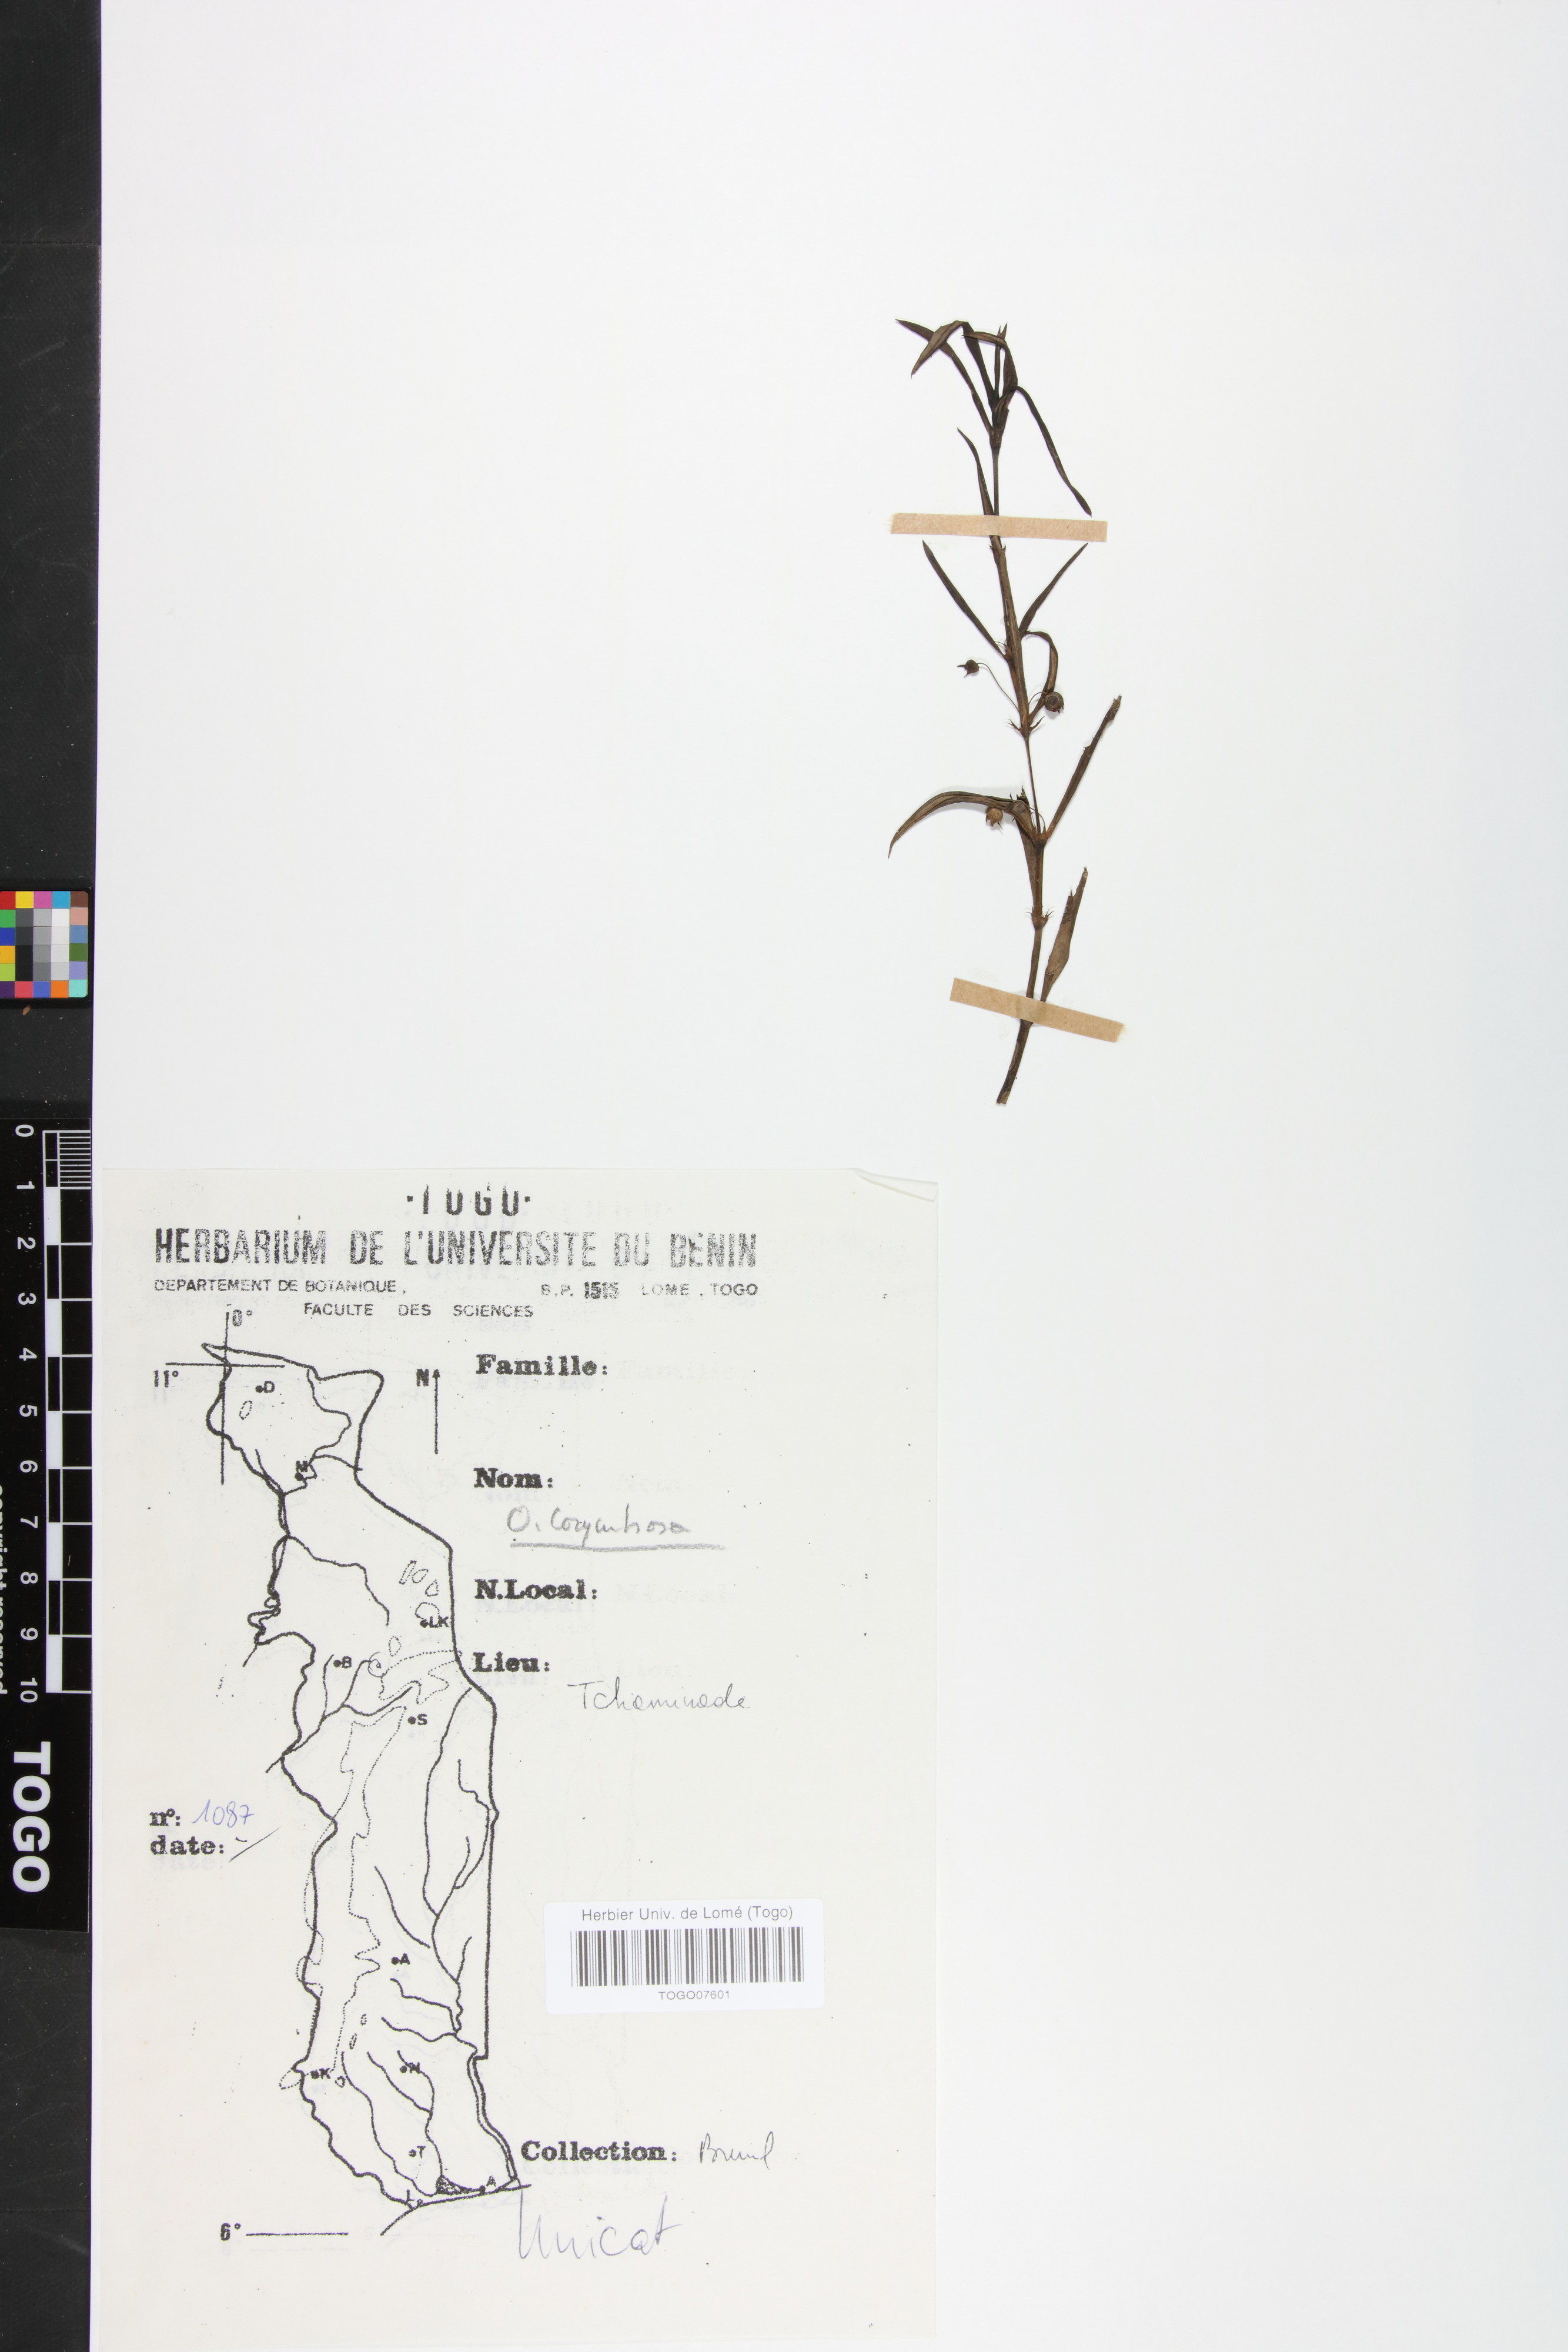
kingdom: Plantae
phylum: Tracheophyta
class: Magnoliopsida
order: Gentianales
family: Rubiaceae
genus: Oldenlandia
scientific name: Oldenlandia corymbosa
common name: Flat-top mille graines
